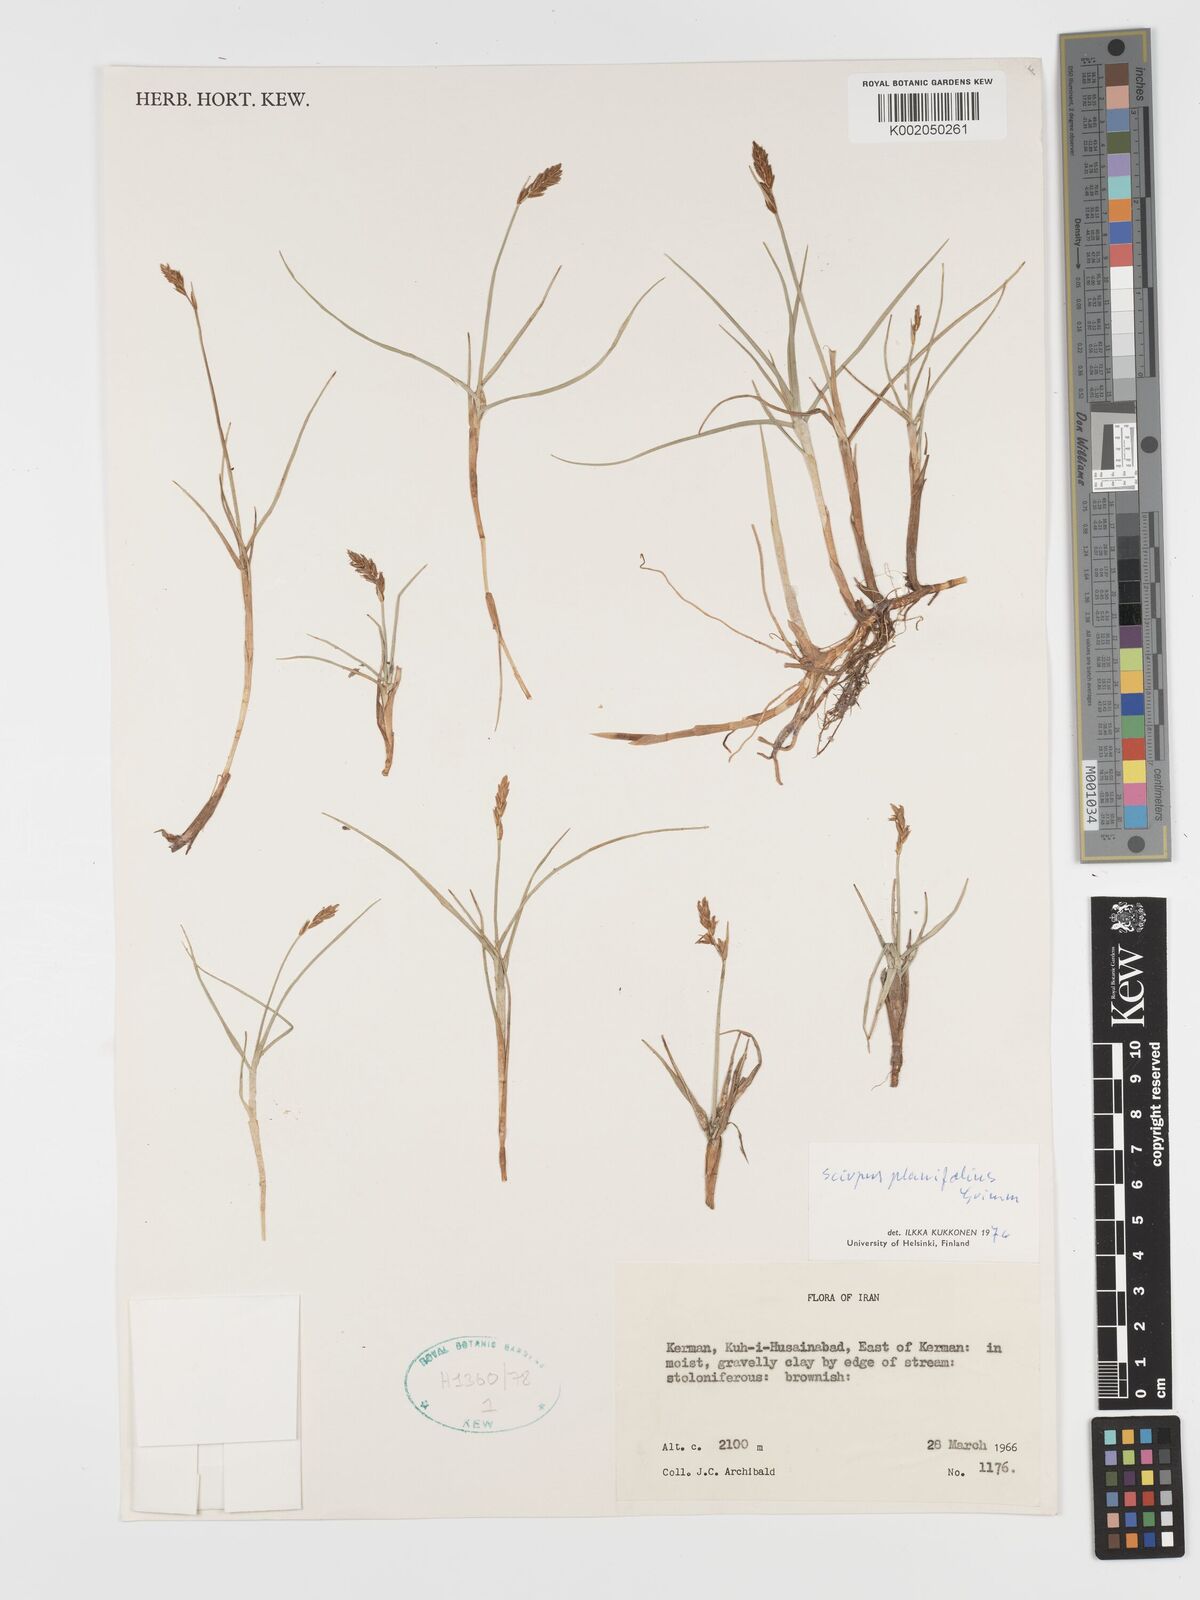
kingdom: Plantae
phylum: Tracheophyta
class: Liliopsida
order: Poales
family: Cyperaceae
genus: Blysmus
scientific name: Blysmus compressus
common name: Flat-sedge
